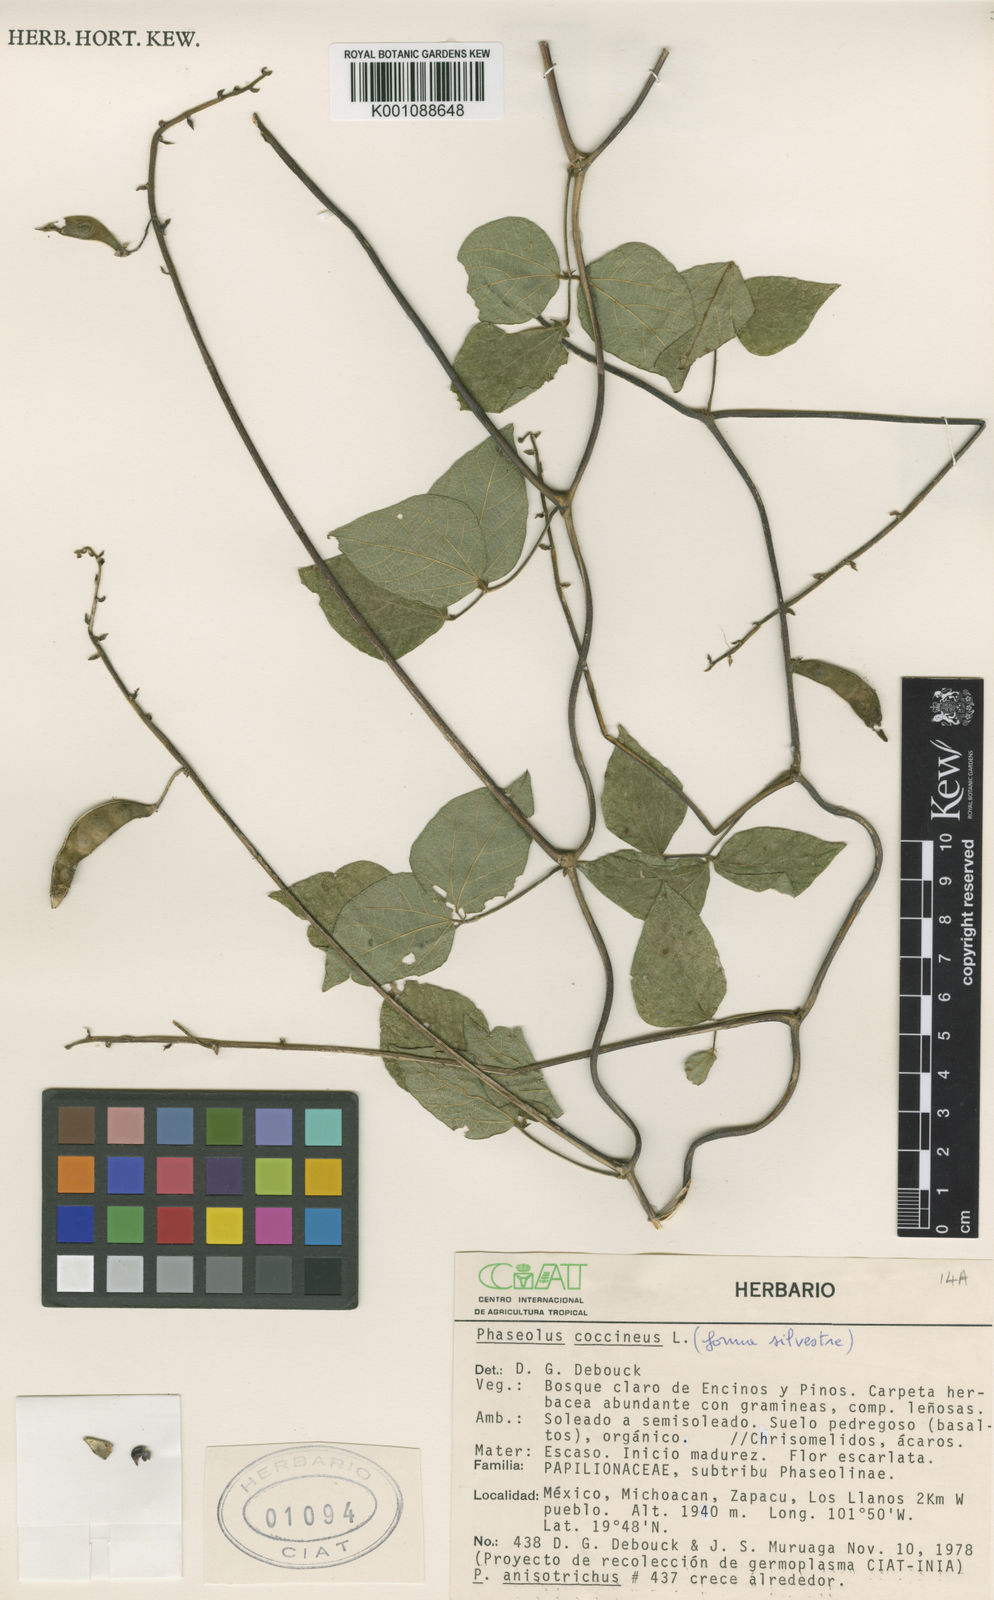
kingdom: Plantae
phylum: Tracheophyta
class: Magnoliopsida
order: Fabales
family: Fabaceae
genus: Phaseolus
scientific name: Phaseolus coccineus
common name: Runner bean
